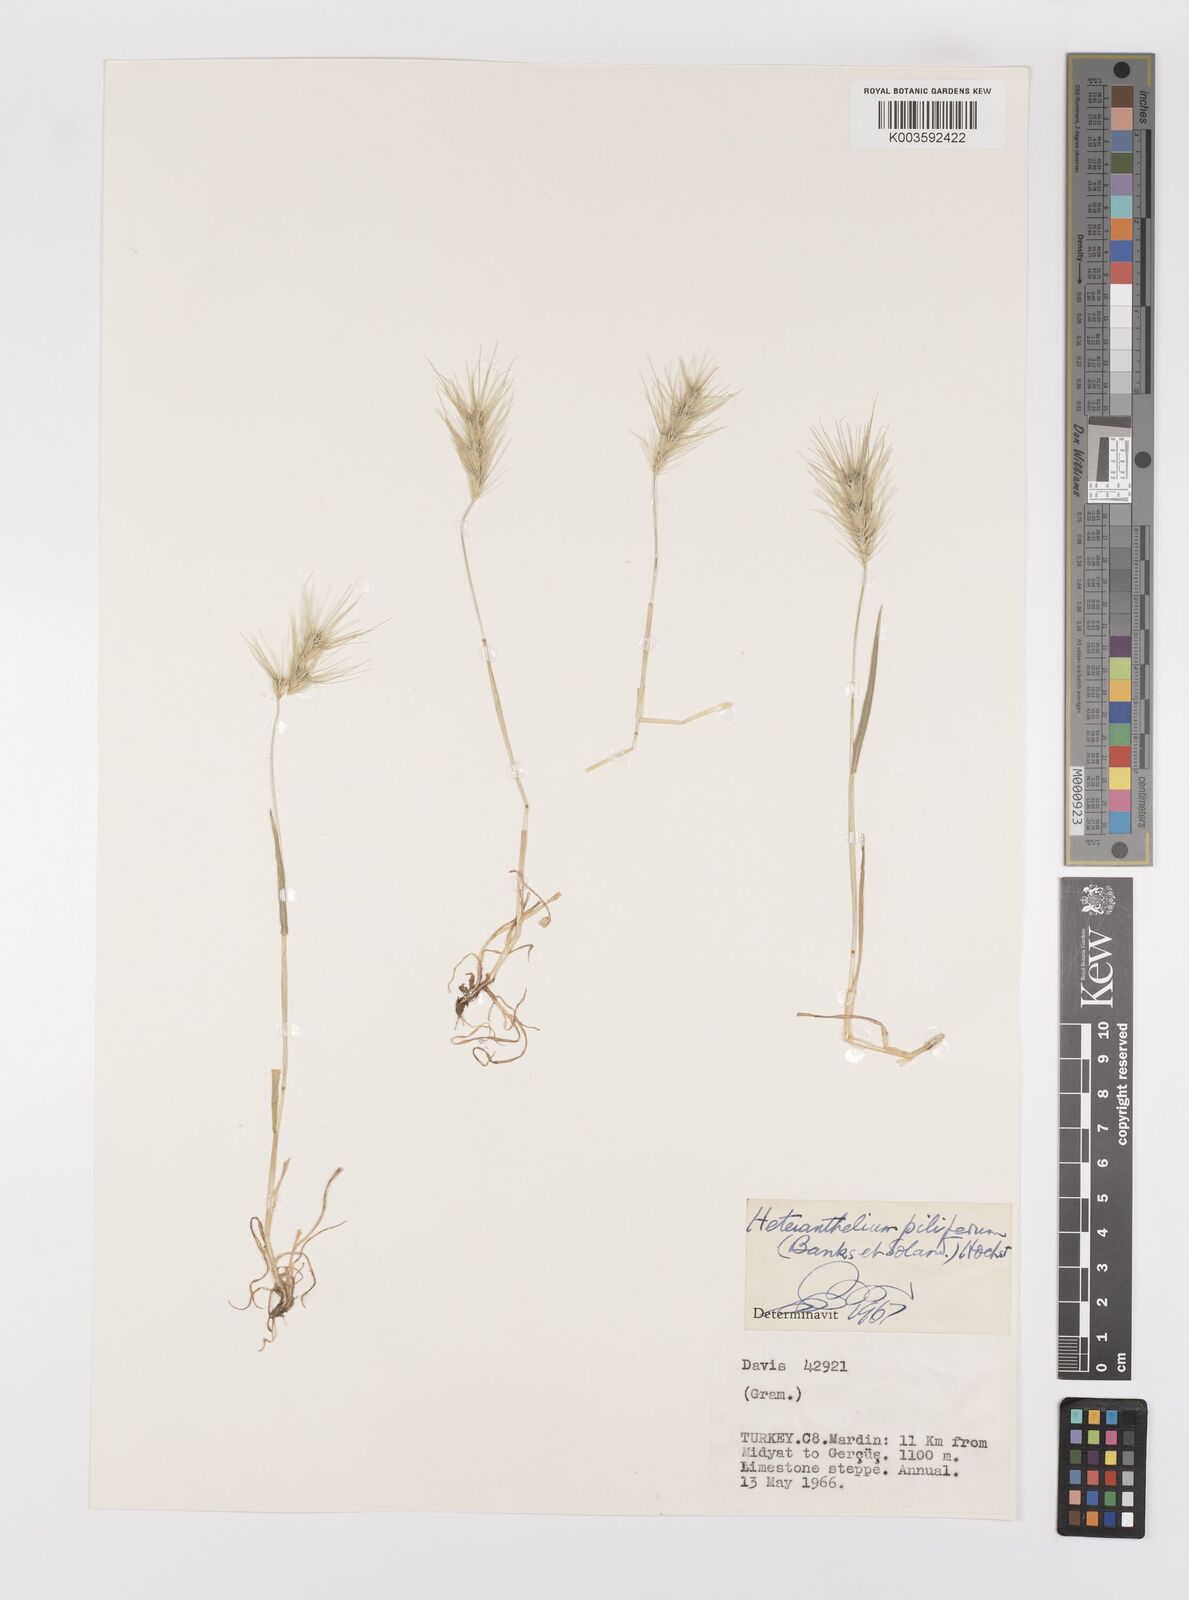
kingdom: Plantae
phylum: Tracheophyta
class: Liliopsida
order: Poales
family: Poaceae
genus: Heteranthelium
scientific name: Heteranthelium piliferum
